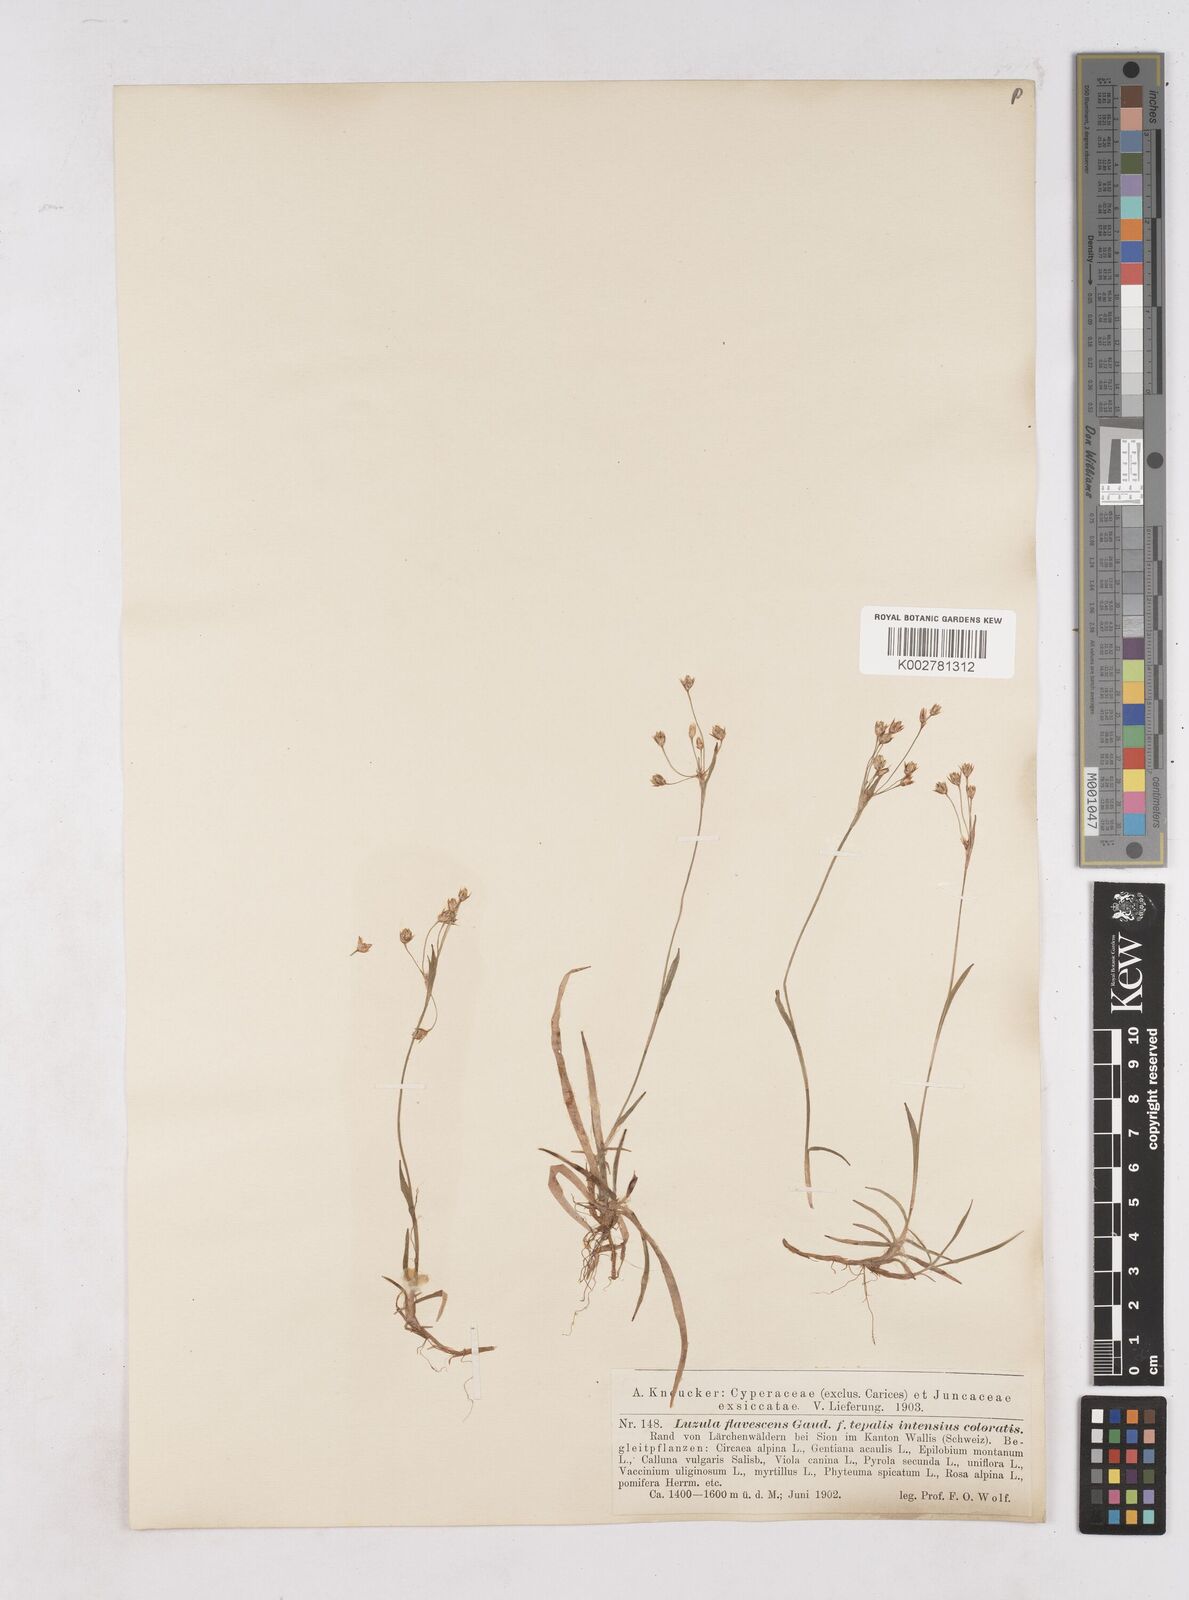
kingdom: Plantae
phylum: Tracheophyta
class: Liliopsida
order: Poales
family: Juncaceae
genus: Luzula
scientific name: Luzula luzulina
